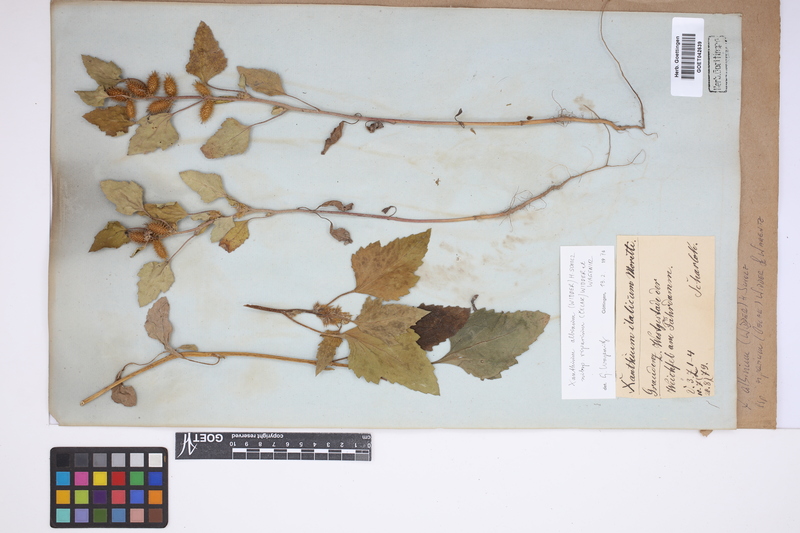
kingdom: Plantae
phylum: Tracheophyta
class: Magnoliopsida
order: Asterales
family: Asteraceae
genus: Xanthium
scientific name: Xanthium orientale
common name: Californian burr
